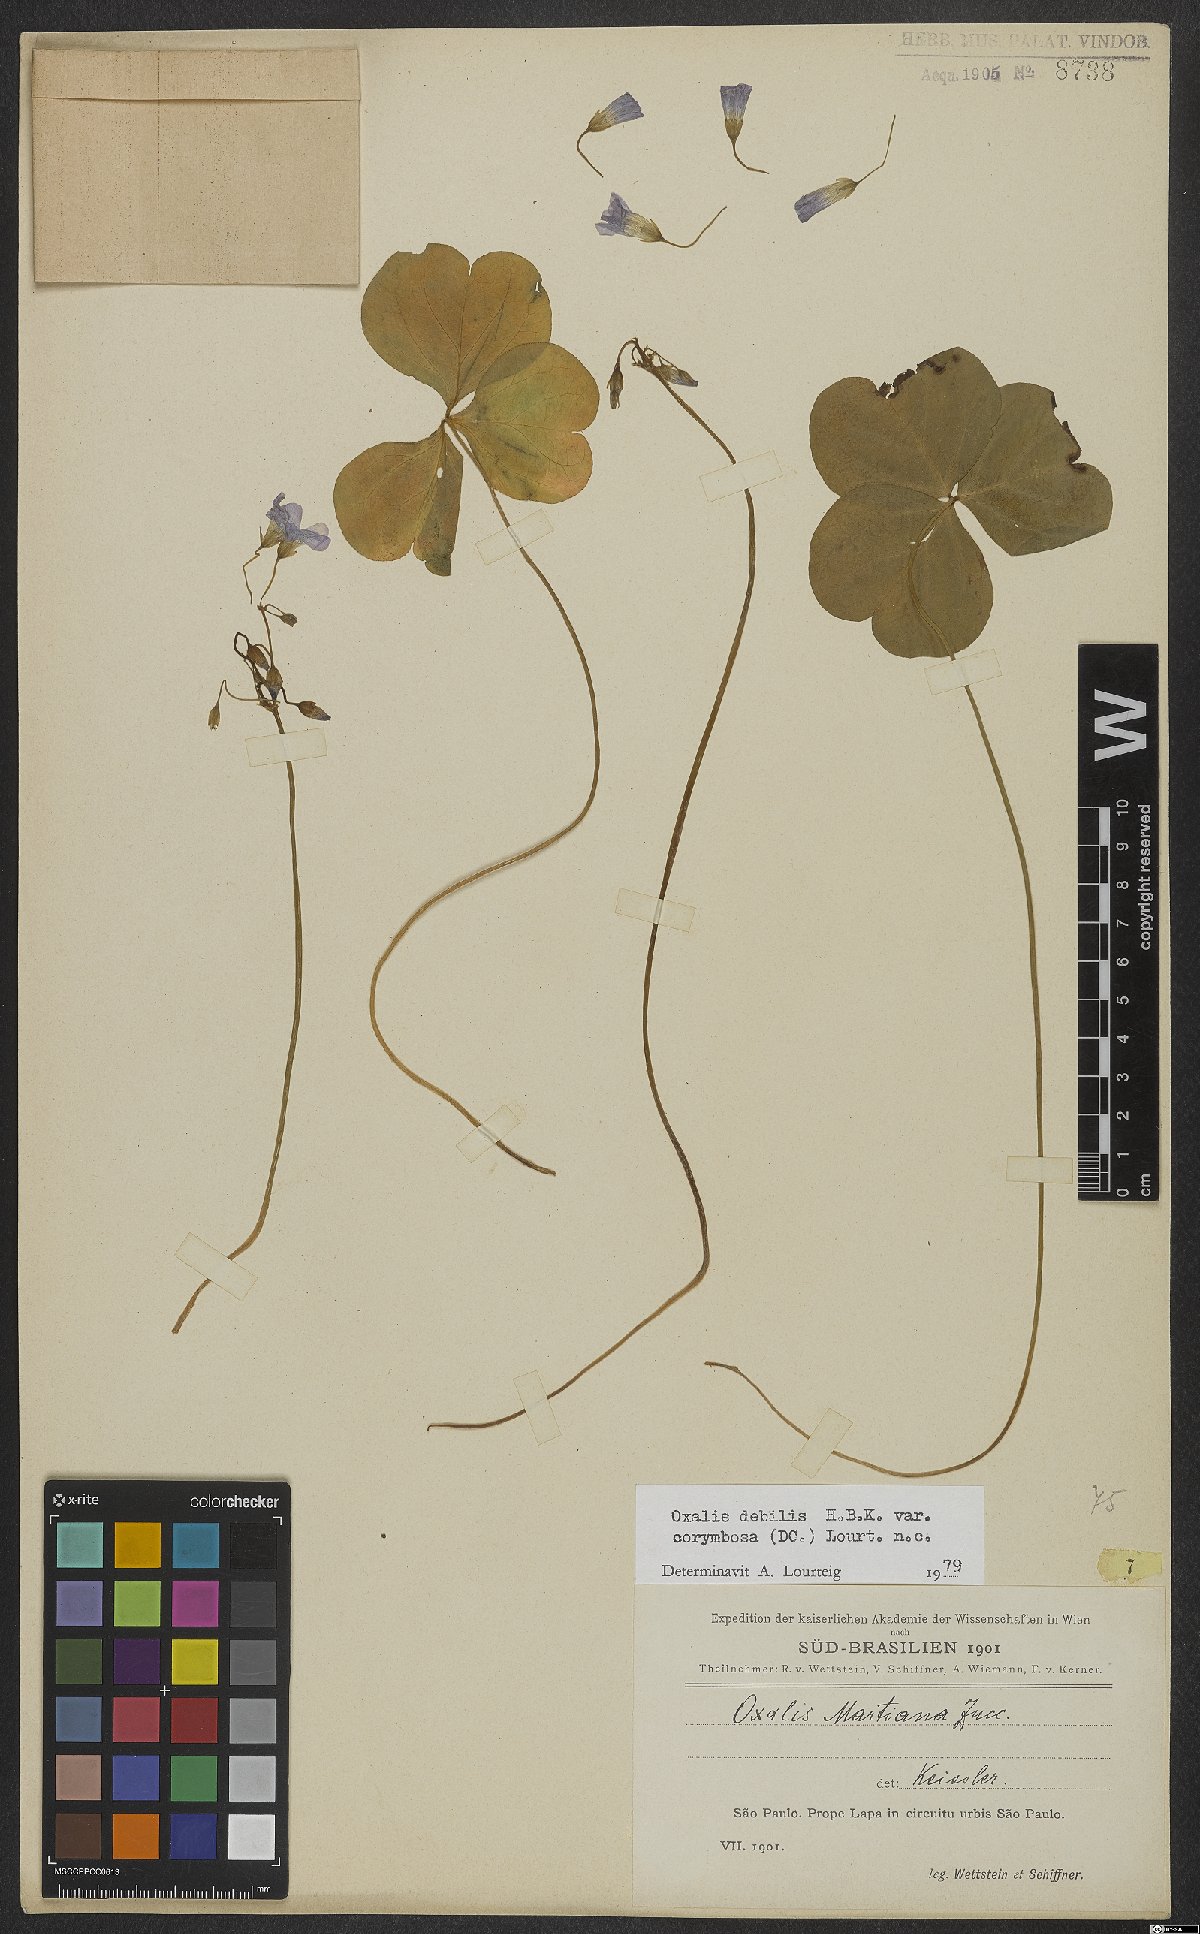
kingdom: Plantae
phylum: Tracheophyta
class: Magnoliopsida
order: Oxalidales
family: Oxalidaceae
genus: Oxalis
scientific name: Oxalis debilis
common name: Large-flowered pink-sorrel
